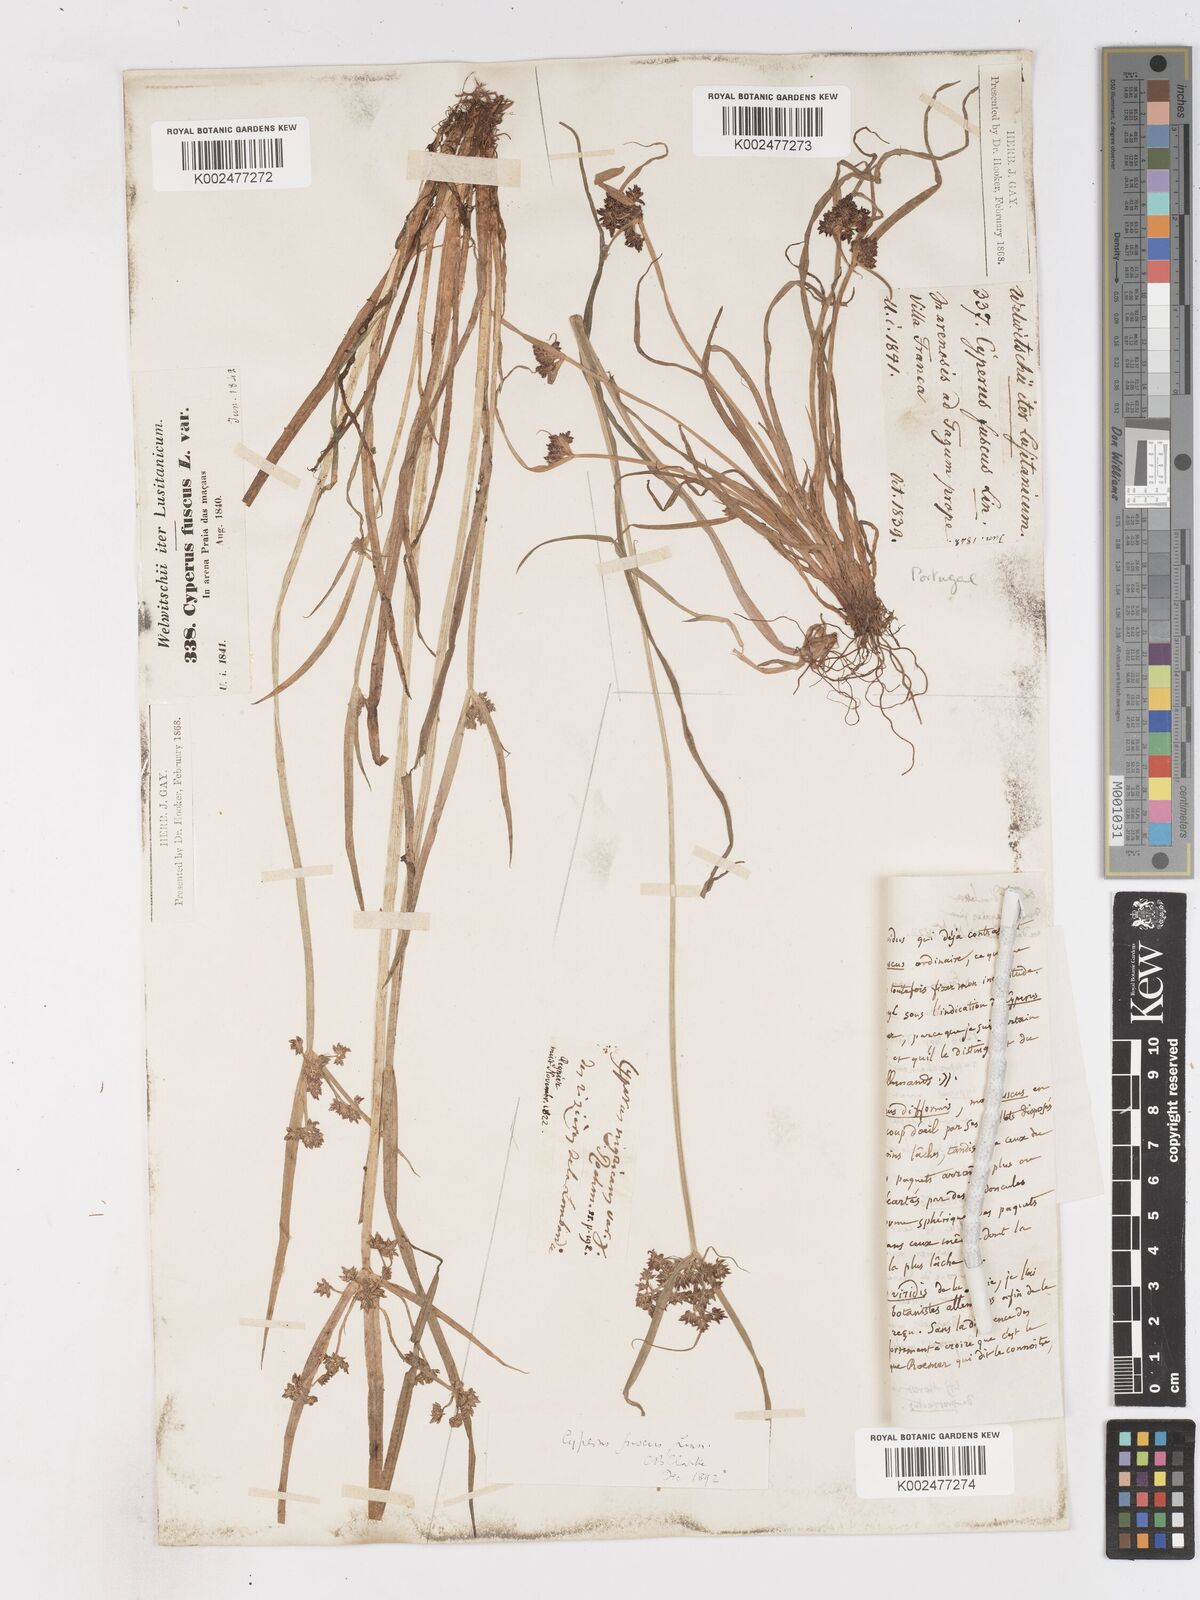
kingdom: Plantae
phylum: Tracheophyta
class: Liliopsida
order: Poales
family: Cyperaceae
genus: Cyperus
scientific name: Cyperus fuscus
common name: Brown galingale
